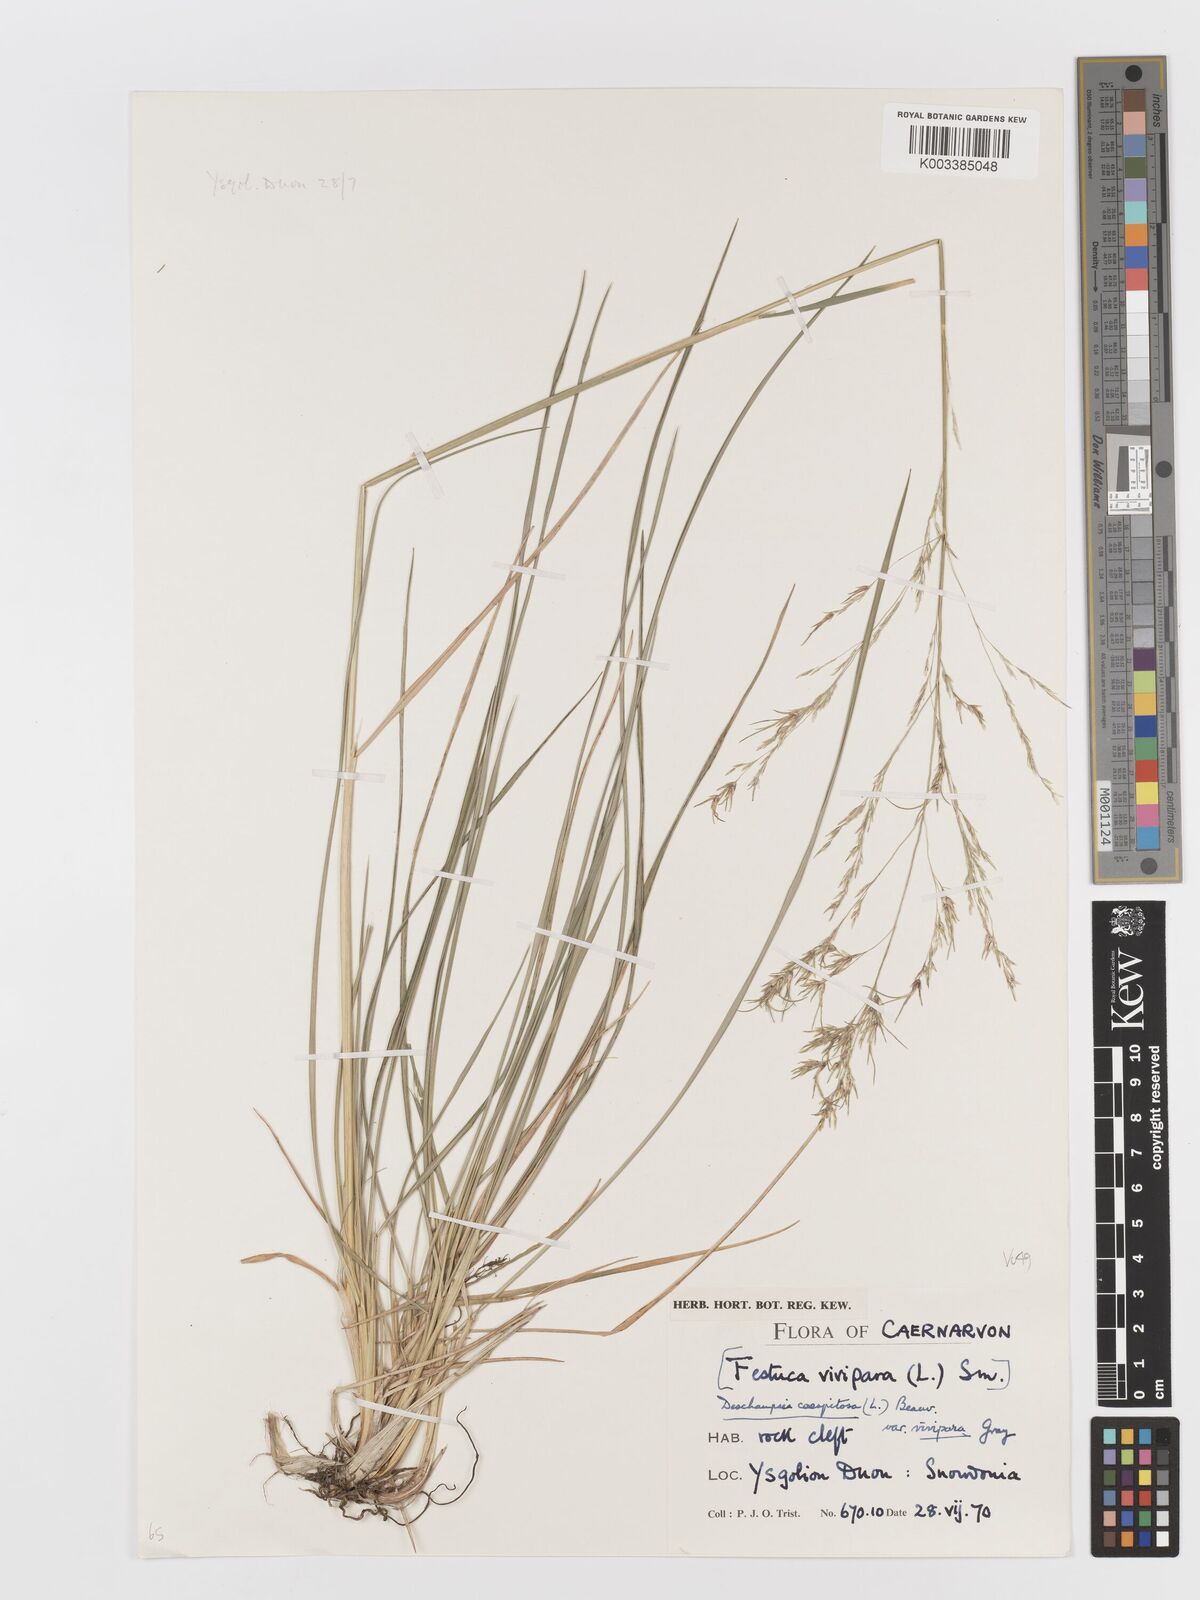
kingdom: Plantae
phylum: Tracheophyta
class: Liliopsida
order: Poales
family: Poaceae
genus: Deschampsia
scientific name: Deschampsia cespitosa
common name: Tufted hair-grass
